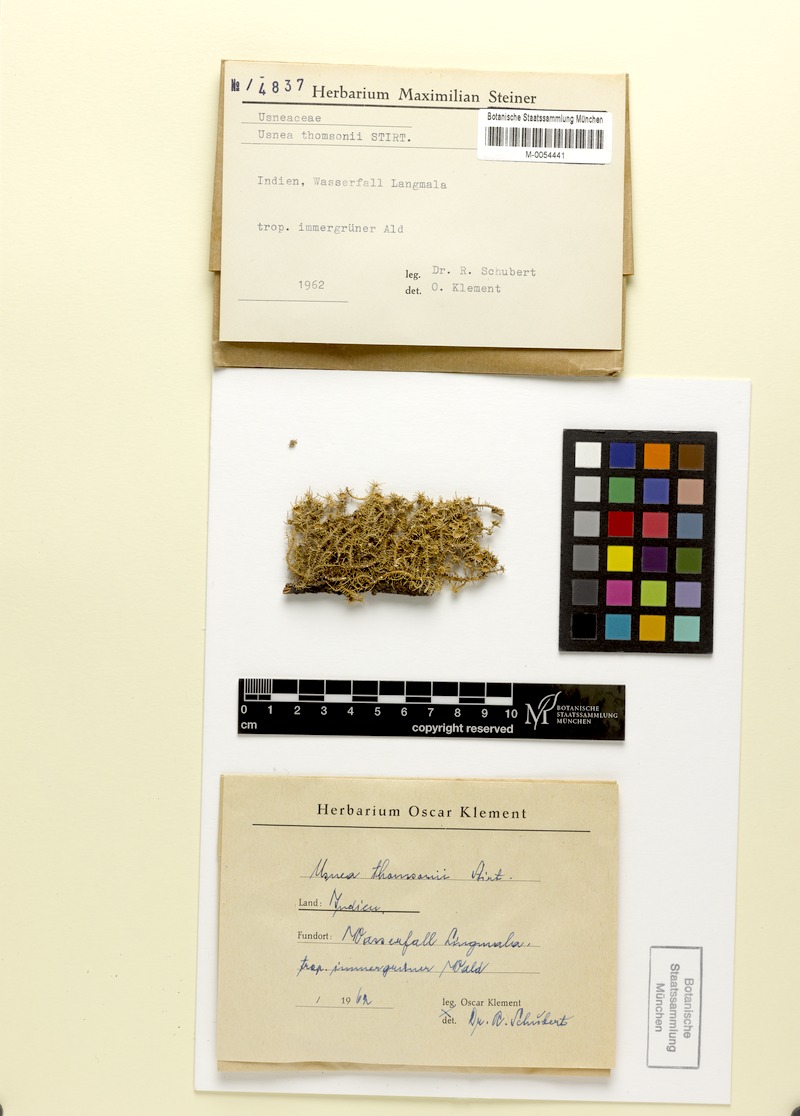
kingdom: Fungi
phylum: Ascomycota
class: Lecanoromycetes
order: Lecanorales
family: Parmeliaceae
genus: Usnea
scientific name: Usnea
